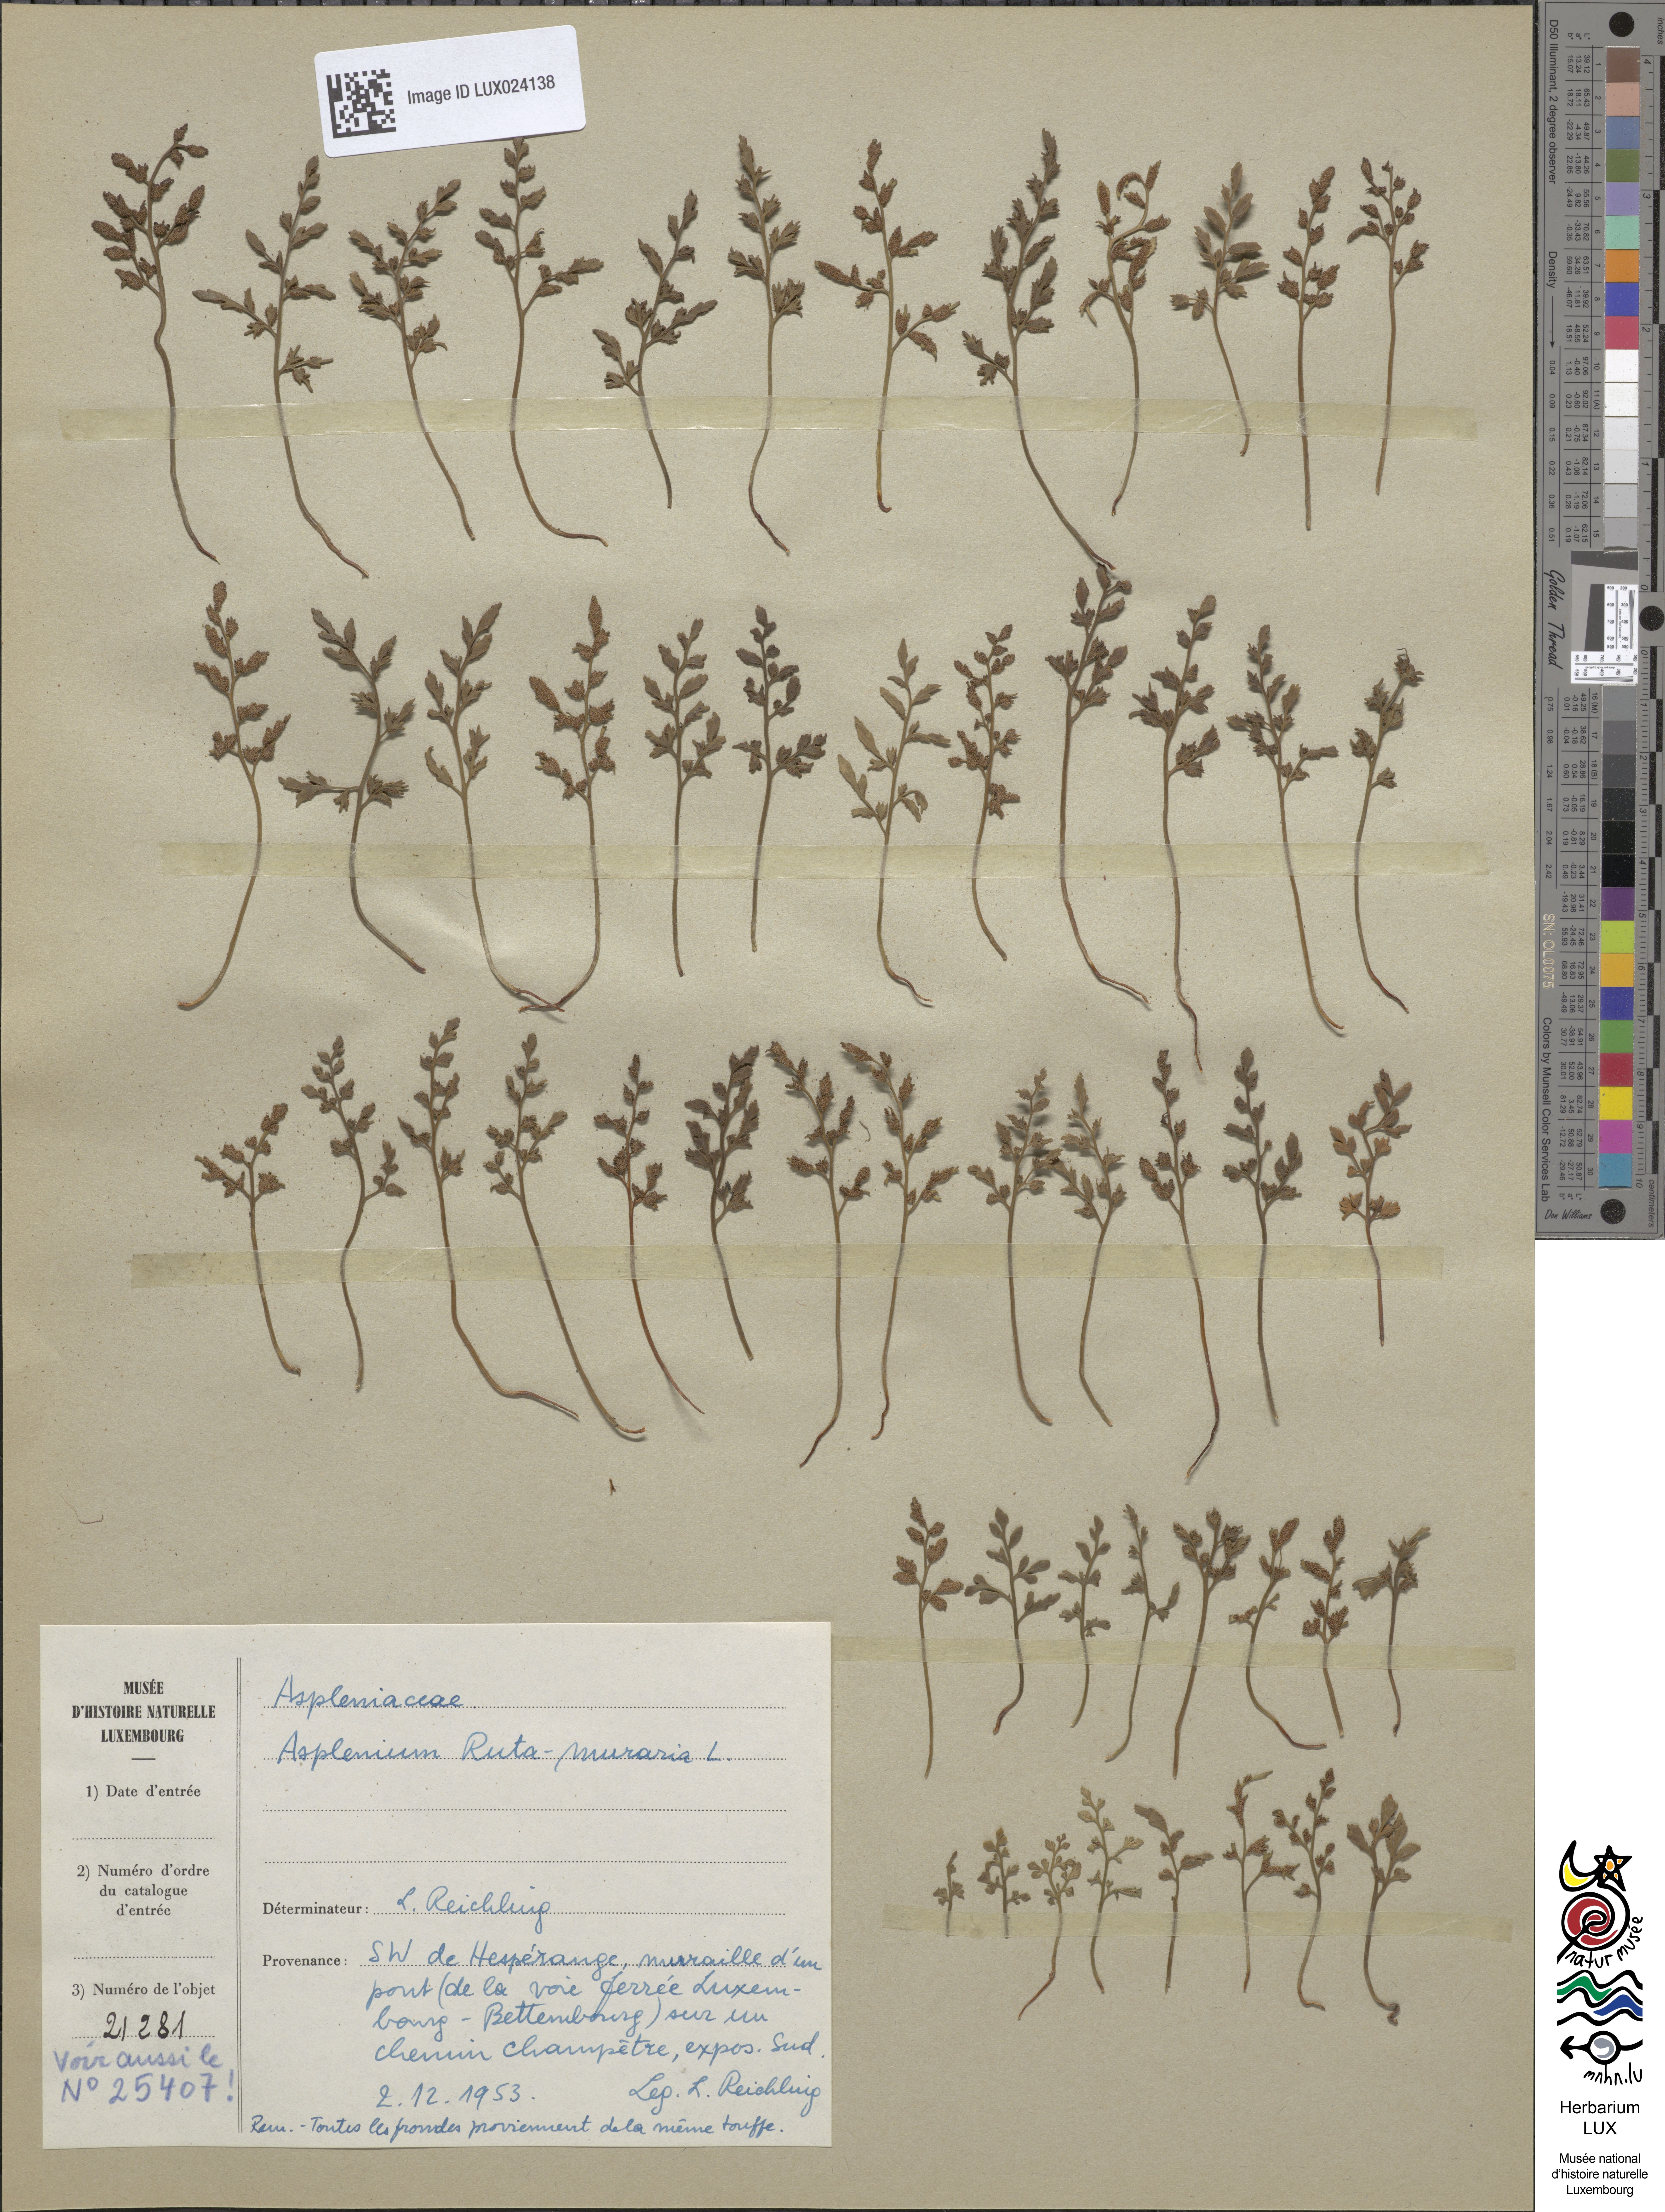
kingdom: Plantae
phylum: Tracheophyta
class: Polypodiopsida
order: Polypodiales
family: Aspleniaceae
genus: Asplenium
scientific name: Asplenium ruta-muraria
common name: Wall-rue
